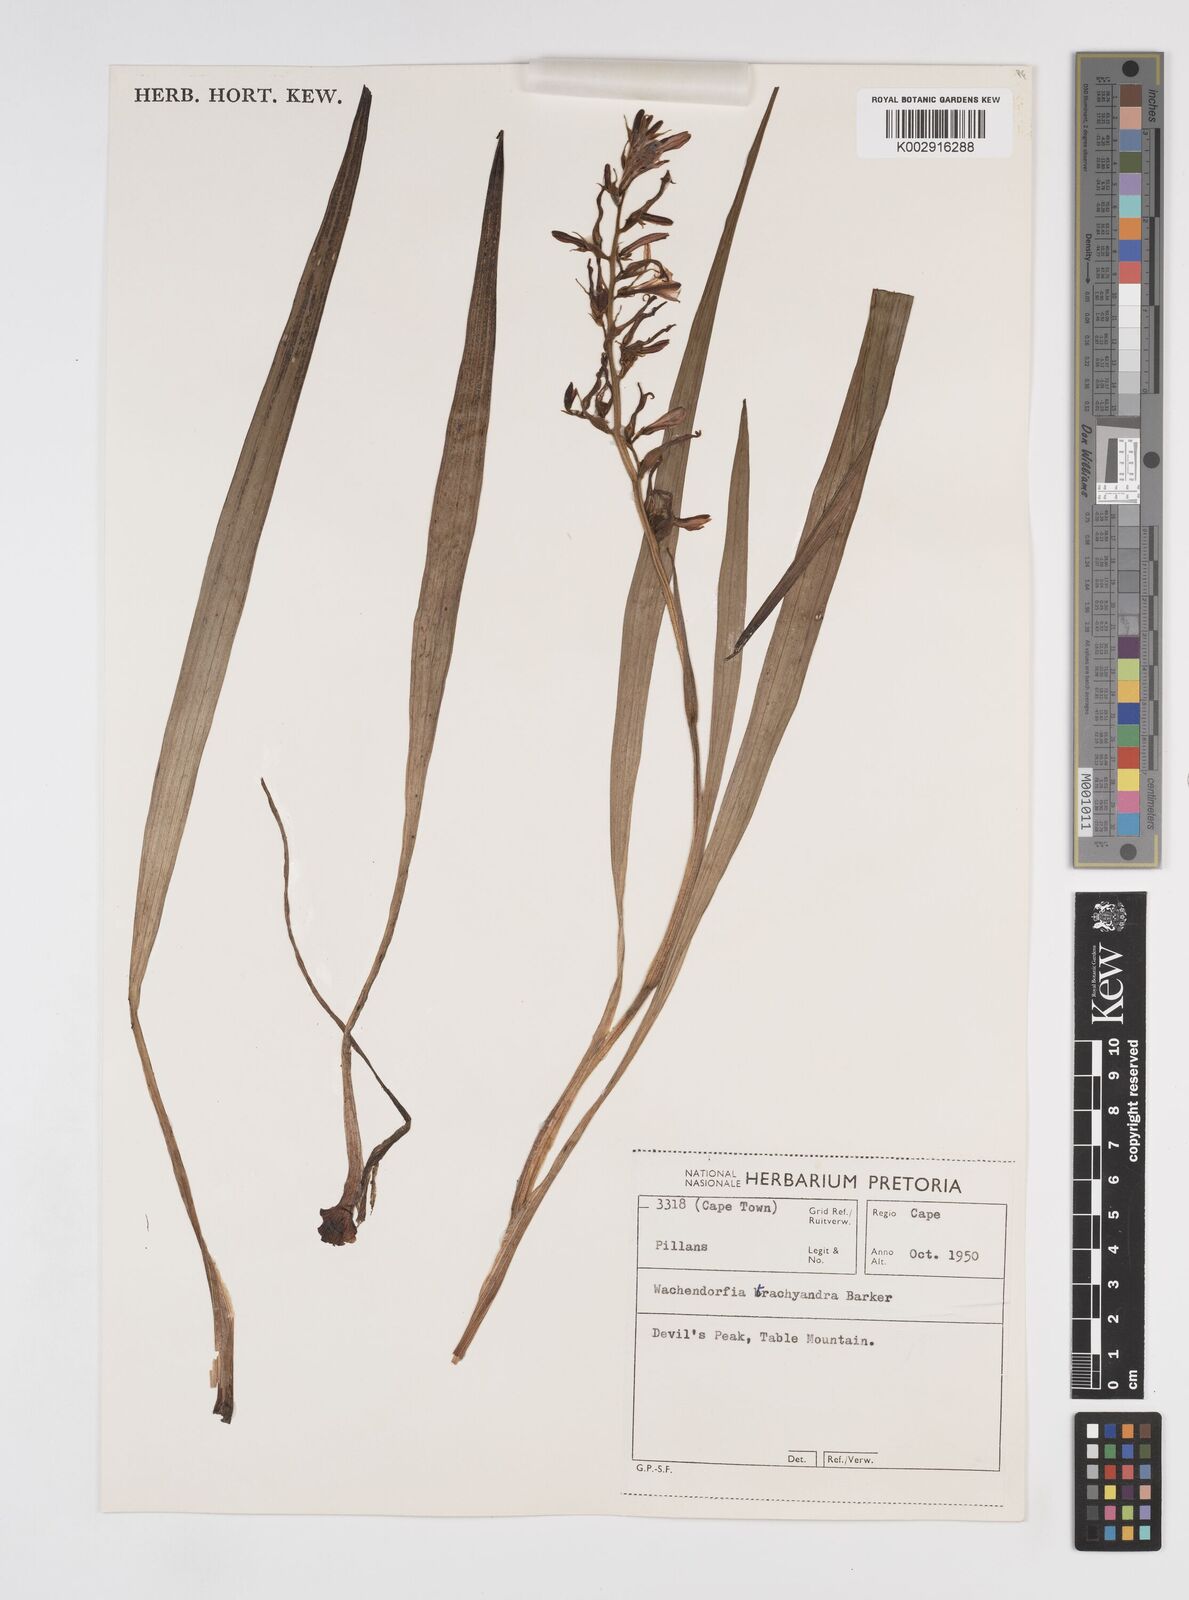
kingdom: Plantae
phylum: Tracheophyta
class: Liliopsida
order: Commelinales
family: Haemodoraceae
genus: Wachendorfia
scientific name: Wachendorfia brachyandra
